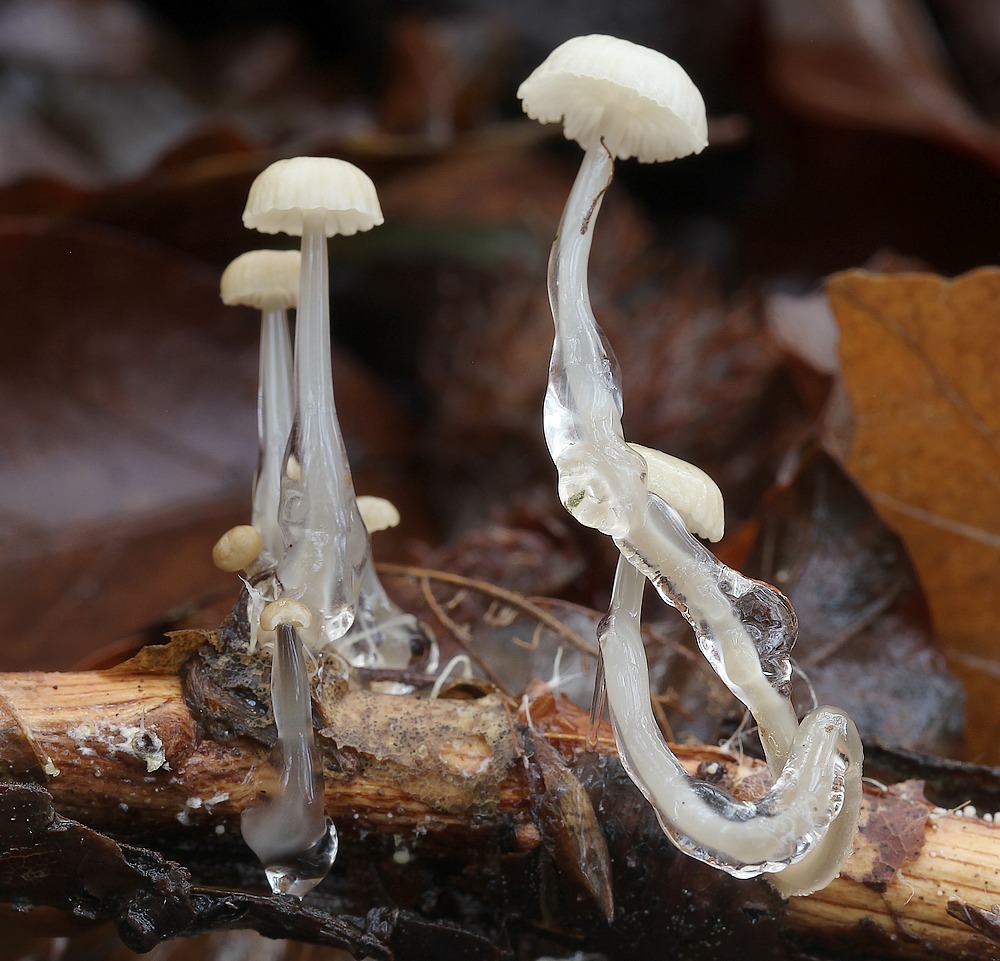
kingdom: Fungi
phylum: Basidiomycota
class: Agaricomycetes
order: Agaricales
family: Mycenaceae
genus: Roridomyces
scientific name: Roridomyces roridus
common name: slimfod
